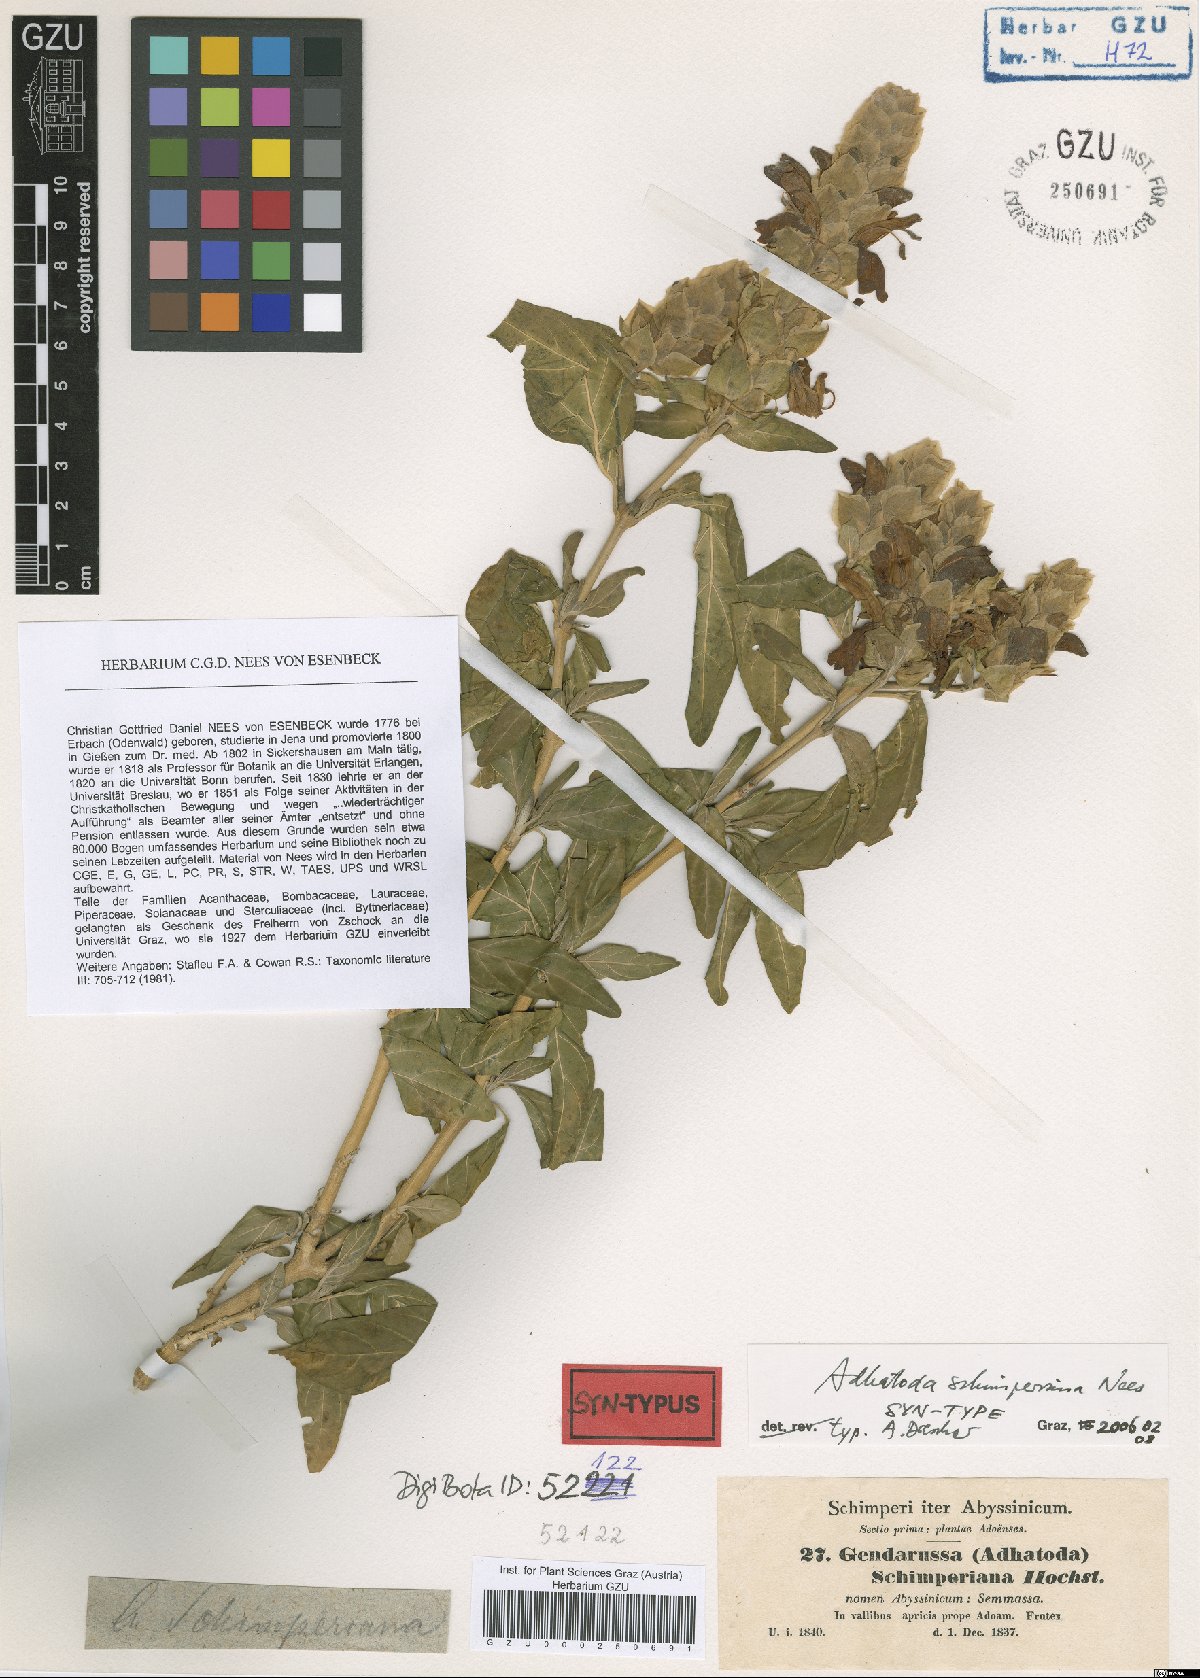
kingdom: Plantae
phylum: Tracheophyta
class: Magnoliopsida
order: Lamiales
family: Acanthaceae
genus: Justicia
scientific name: Justicia schimperiana
